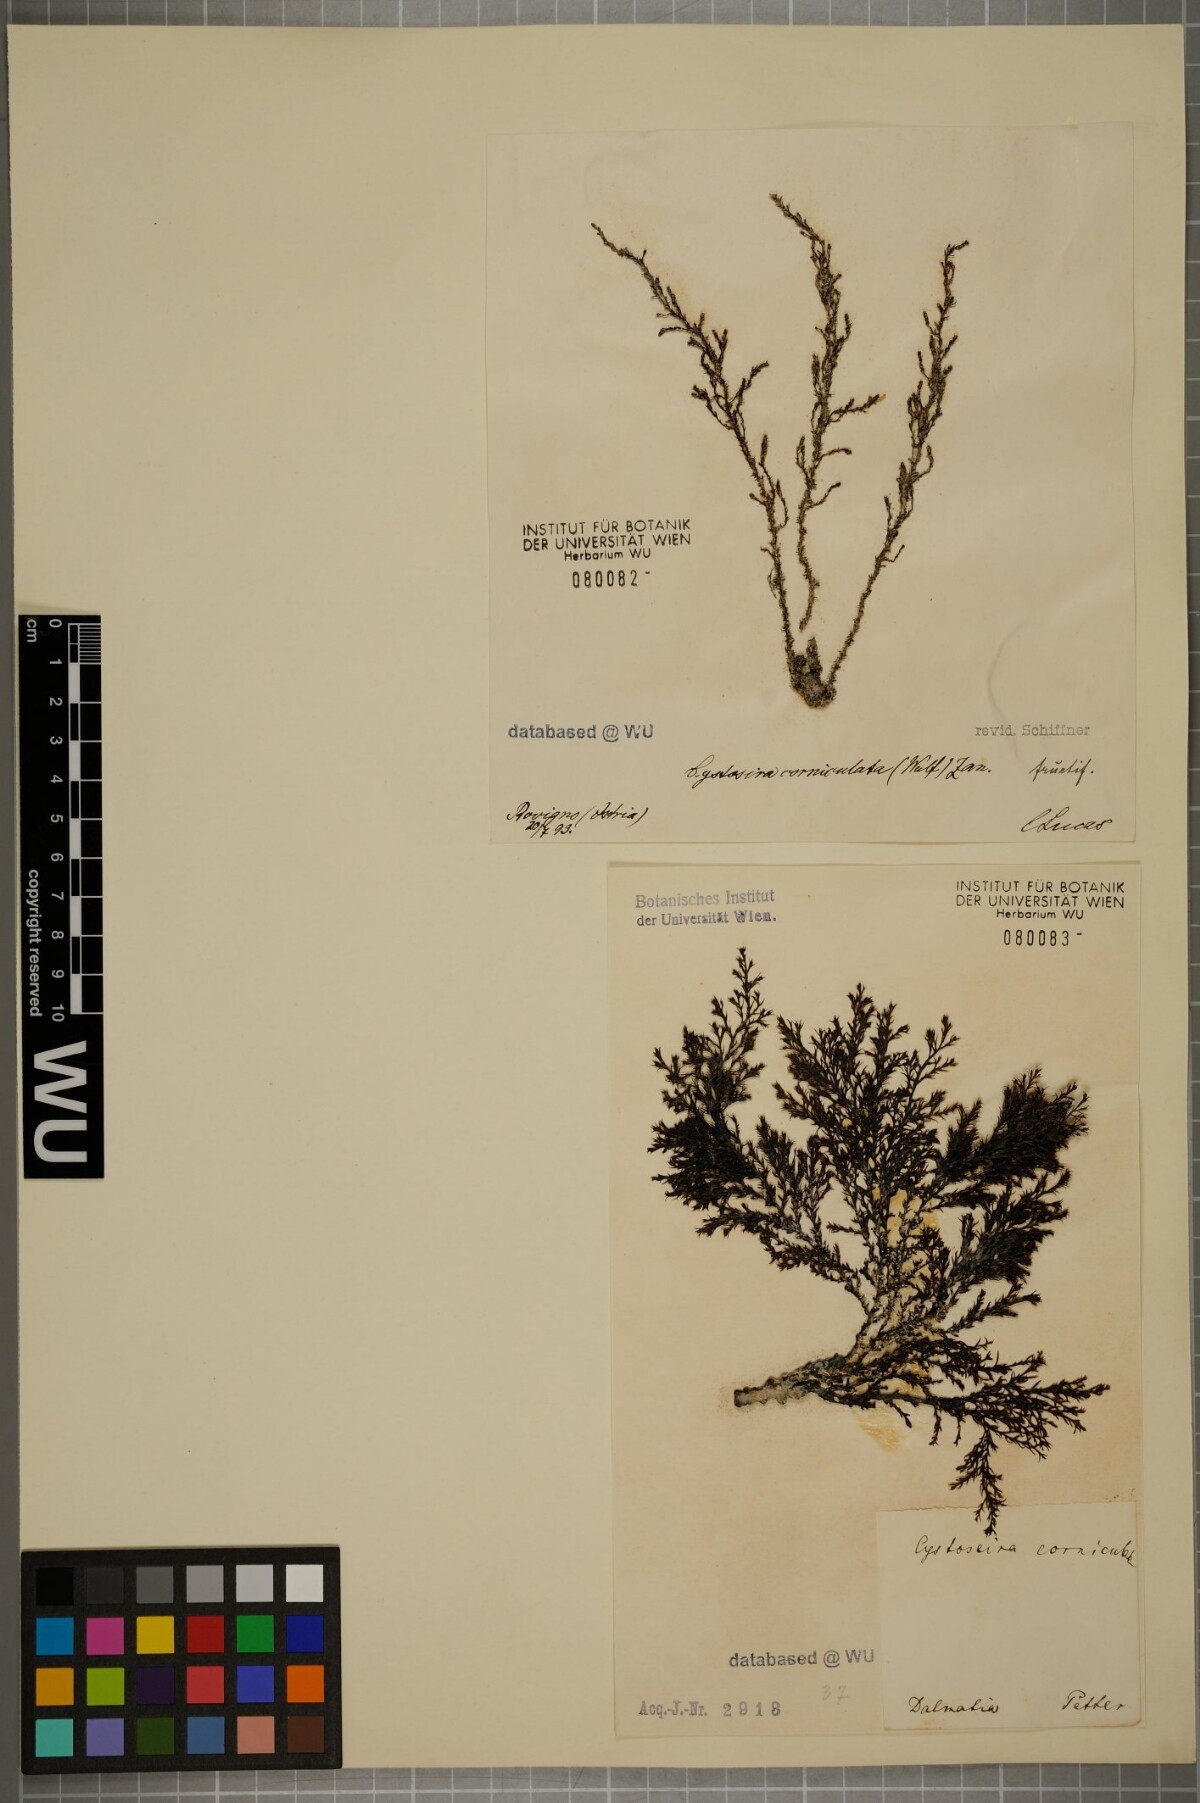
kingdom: Chromista
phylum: Ochrophyta
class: Phaeophyceae
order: Fucales
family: Sargassaceae
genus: Cystoseira
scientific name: Cystoseira corniculata
